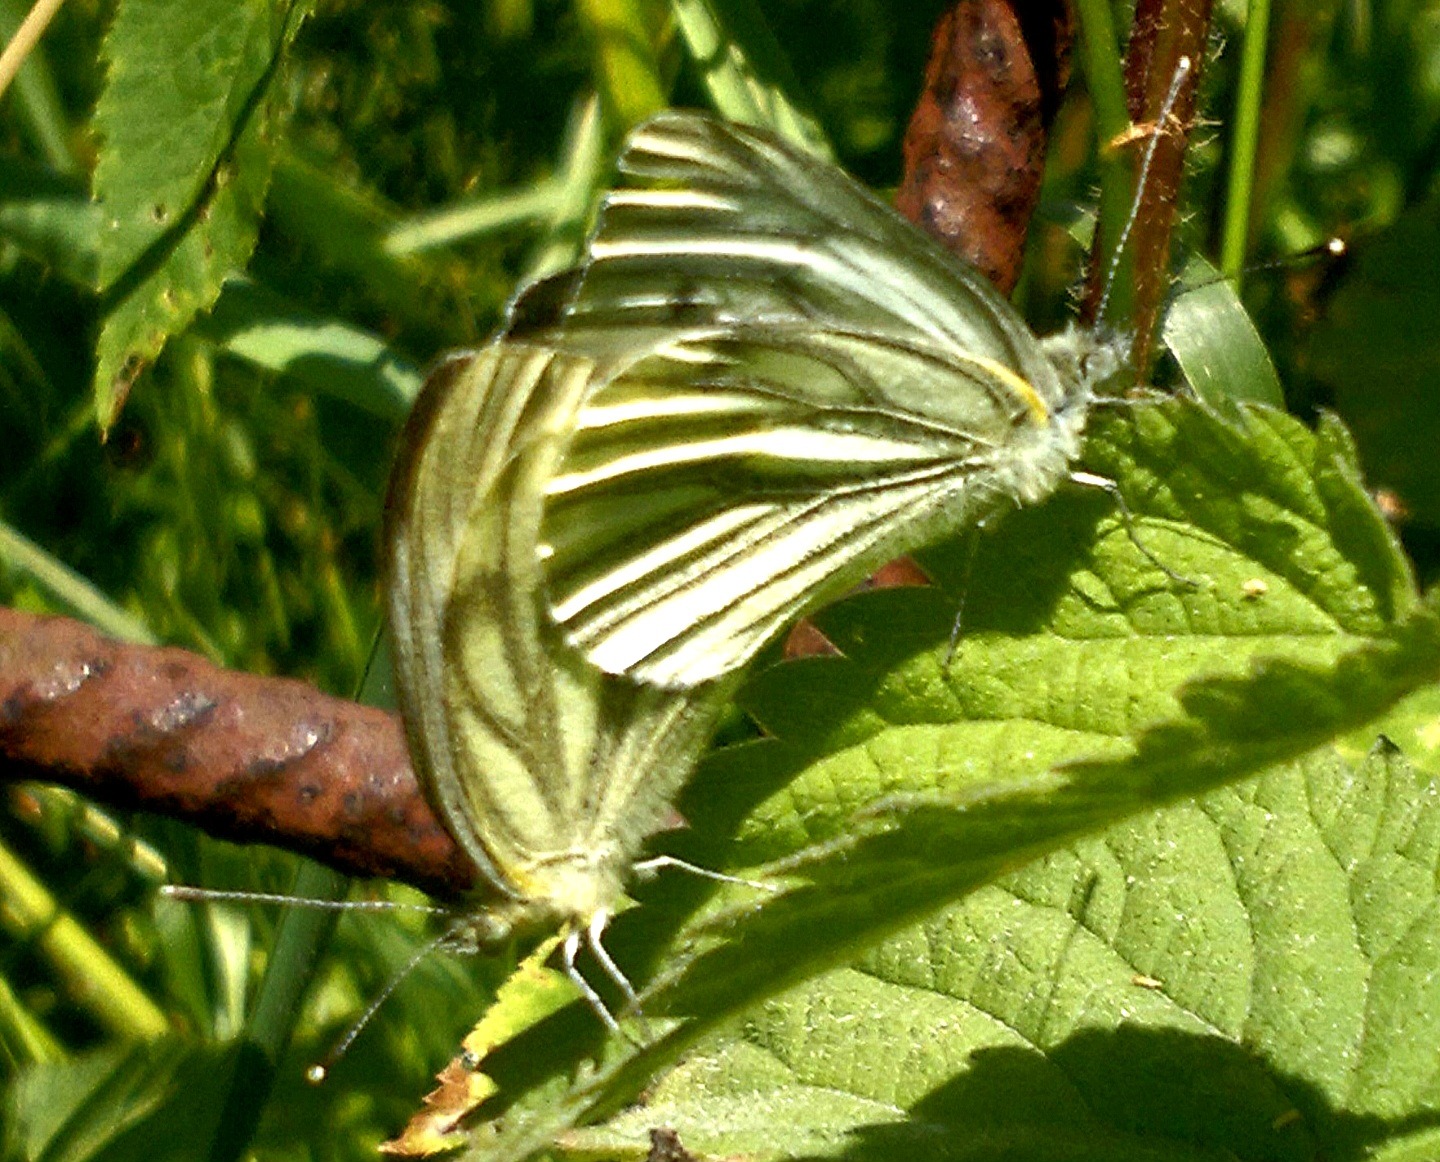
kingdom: Animalia
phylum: Arthropoda
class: Insecta
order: Lepidoptera
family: Pieridae
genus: Pieris
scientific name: Pieris napi
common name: Grønåret kålsommerfugl
